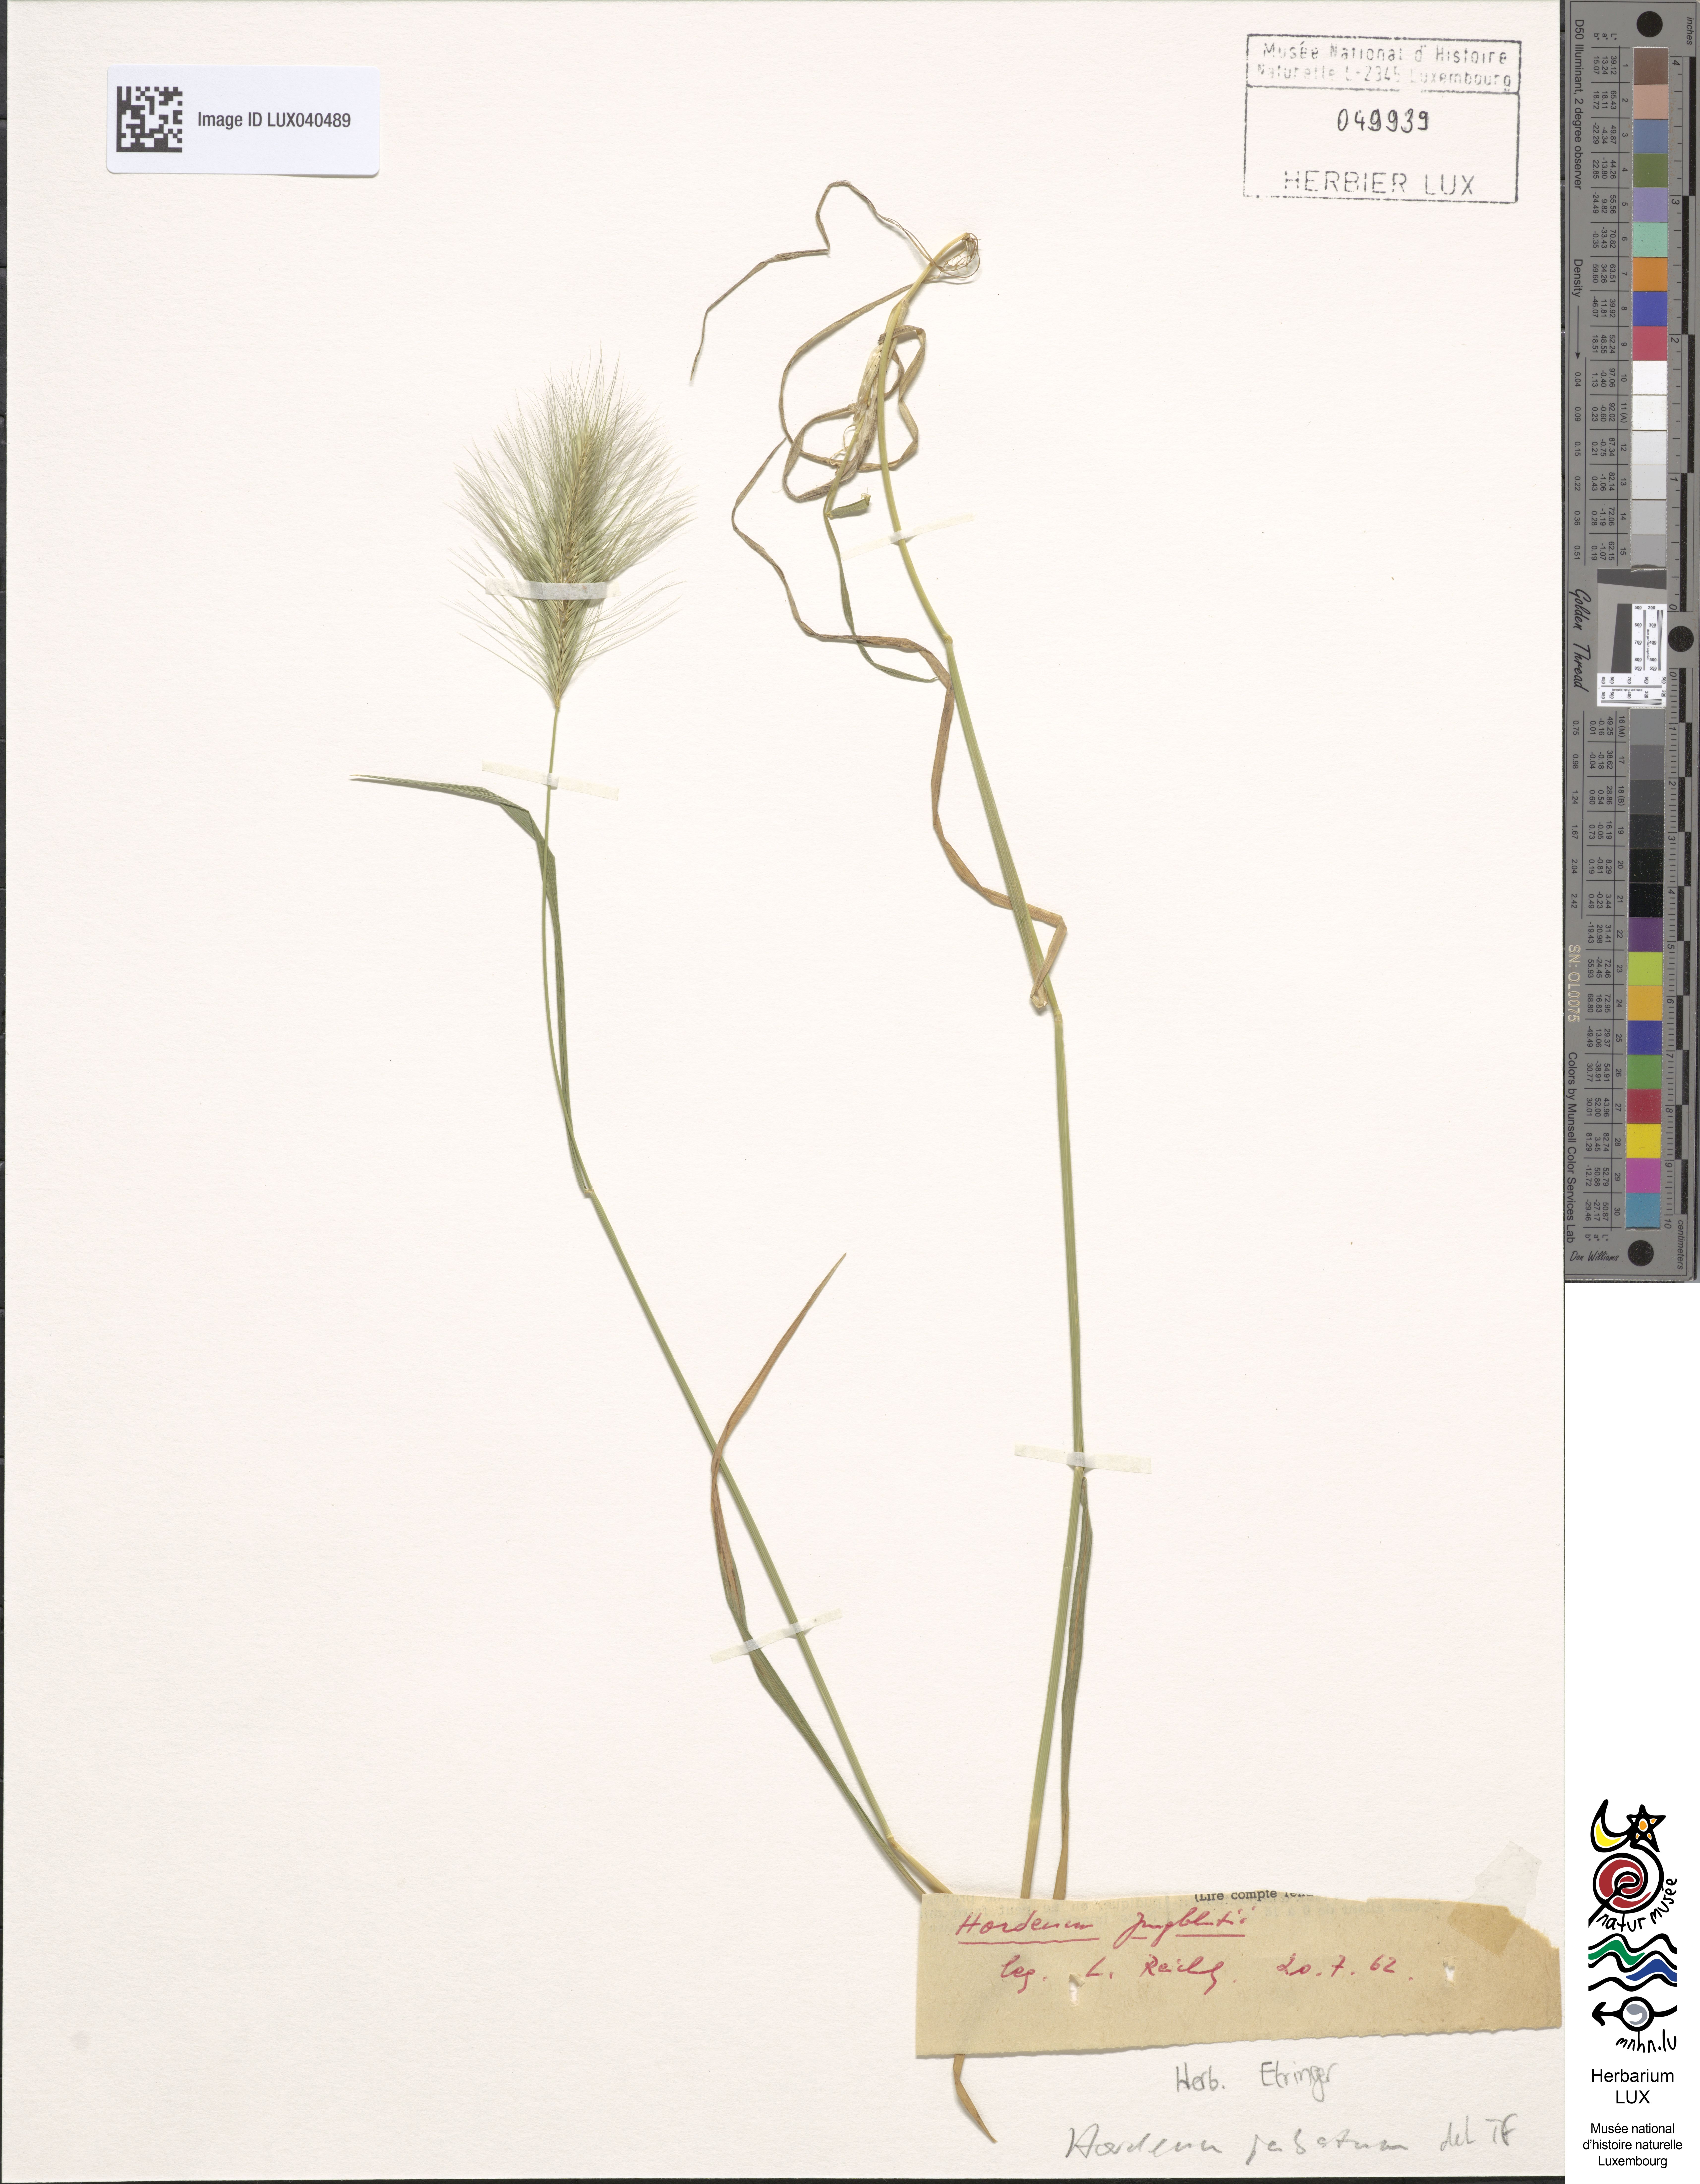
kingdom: Plantae
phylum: Tracheophyta
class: Liliopsida
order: Poales
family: Poaceae
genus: Hordeum
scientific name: Hordeum jubatum
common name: Foxtail barley
